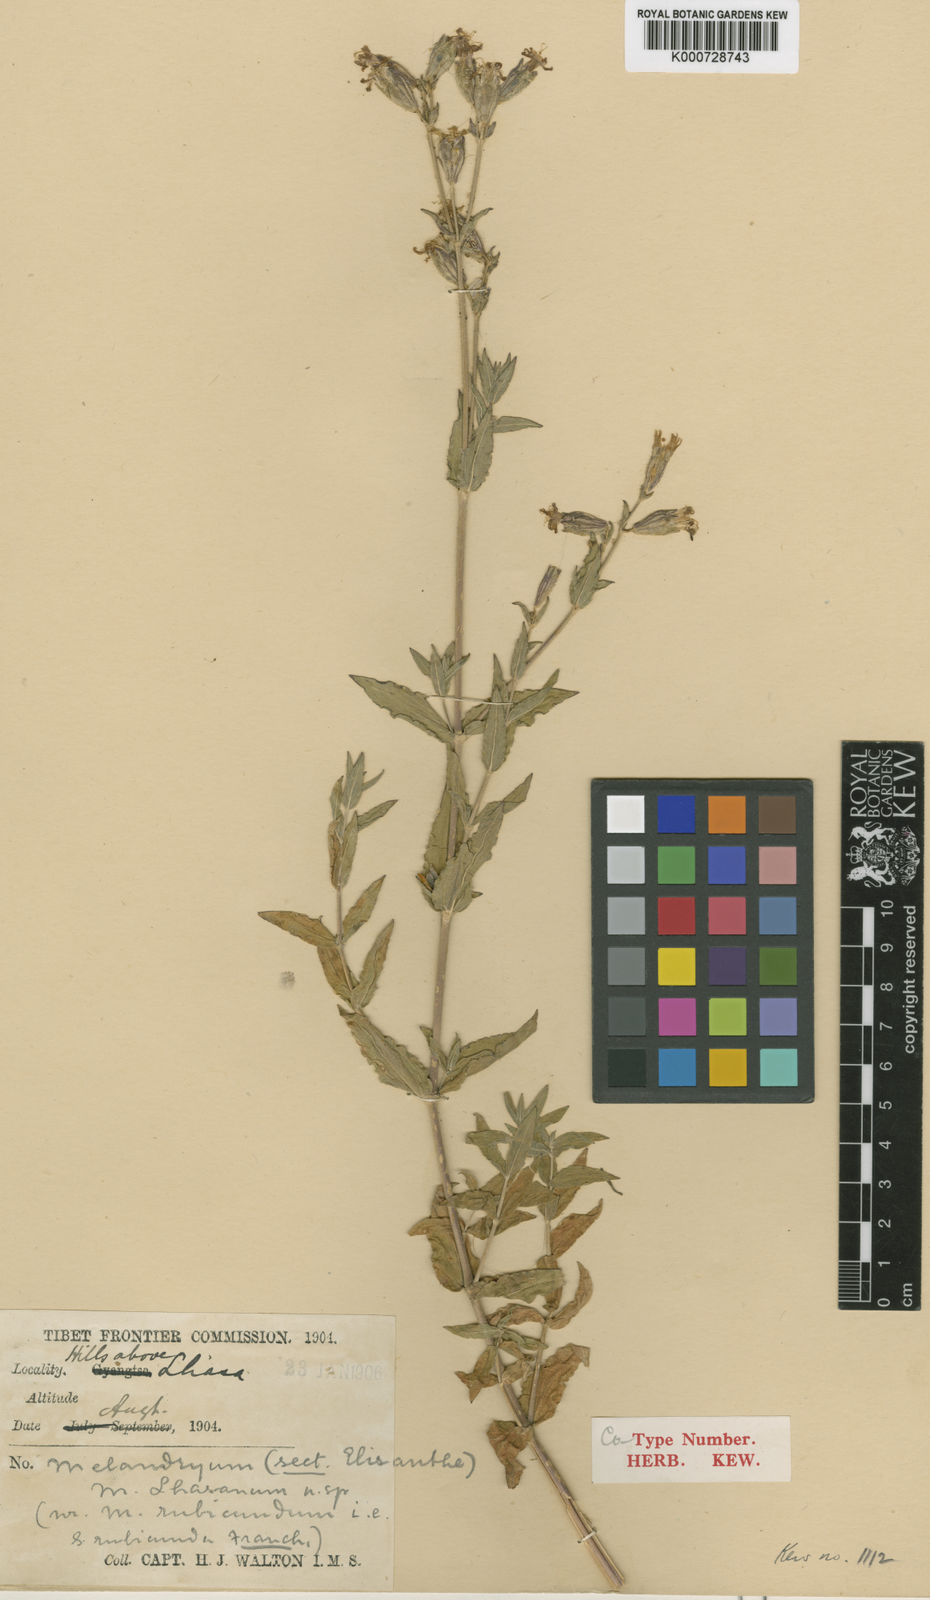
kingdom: Plantae
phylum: Tracheophyta
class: Magnoliopsida
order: Caryophyllales
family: Caryophyllaceae
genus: Silene
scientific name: Silene
